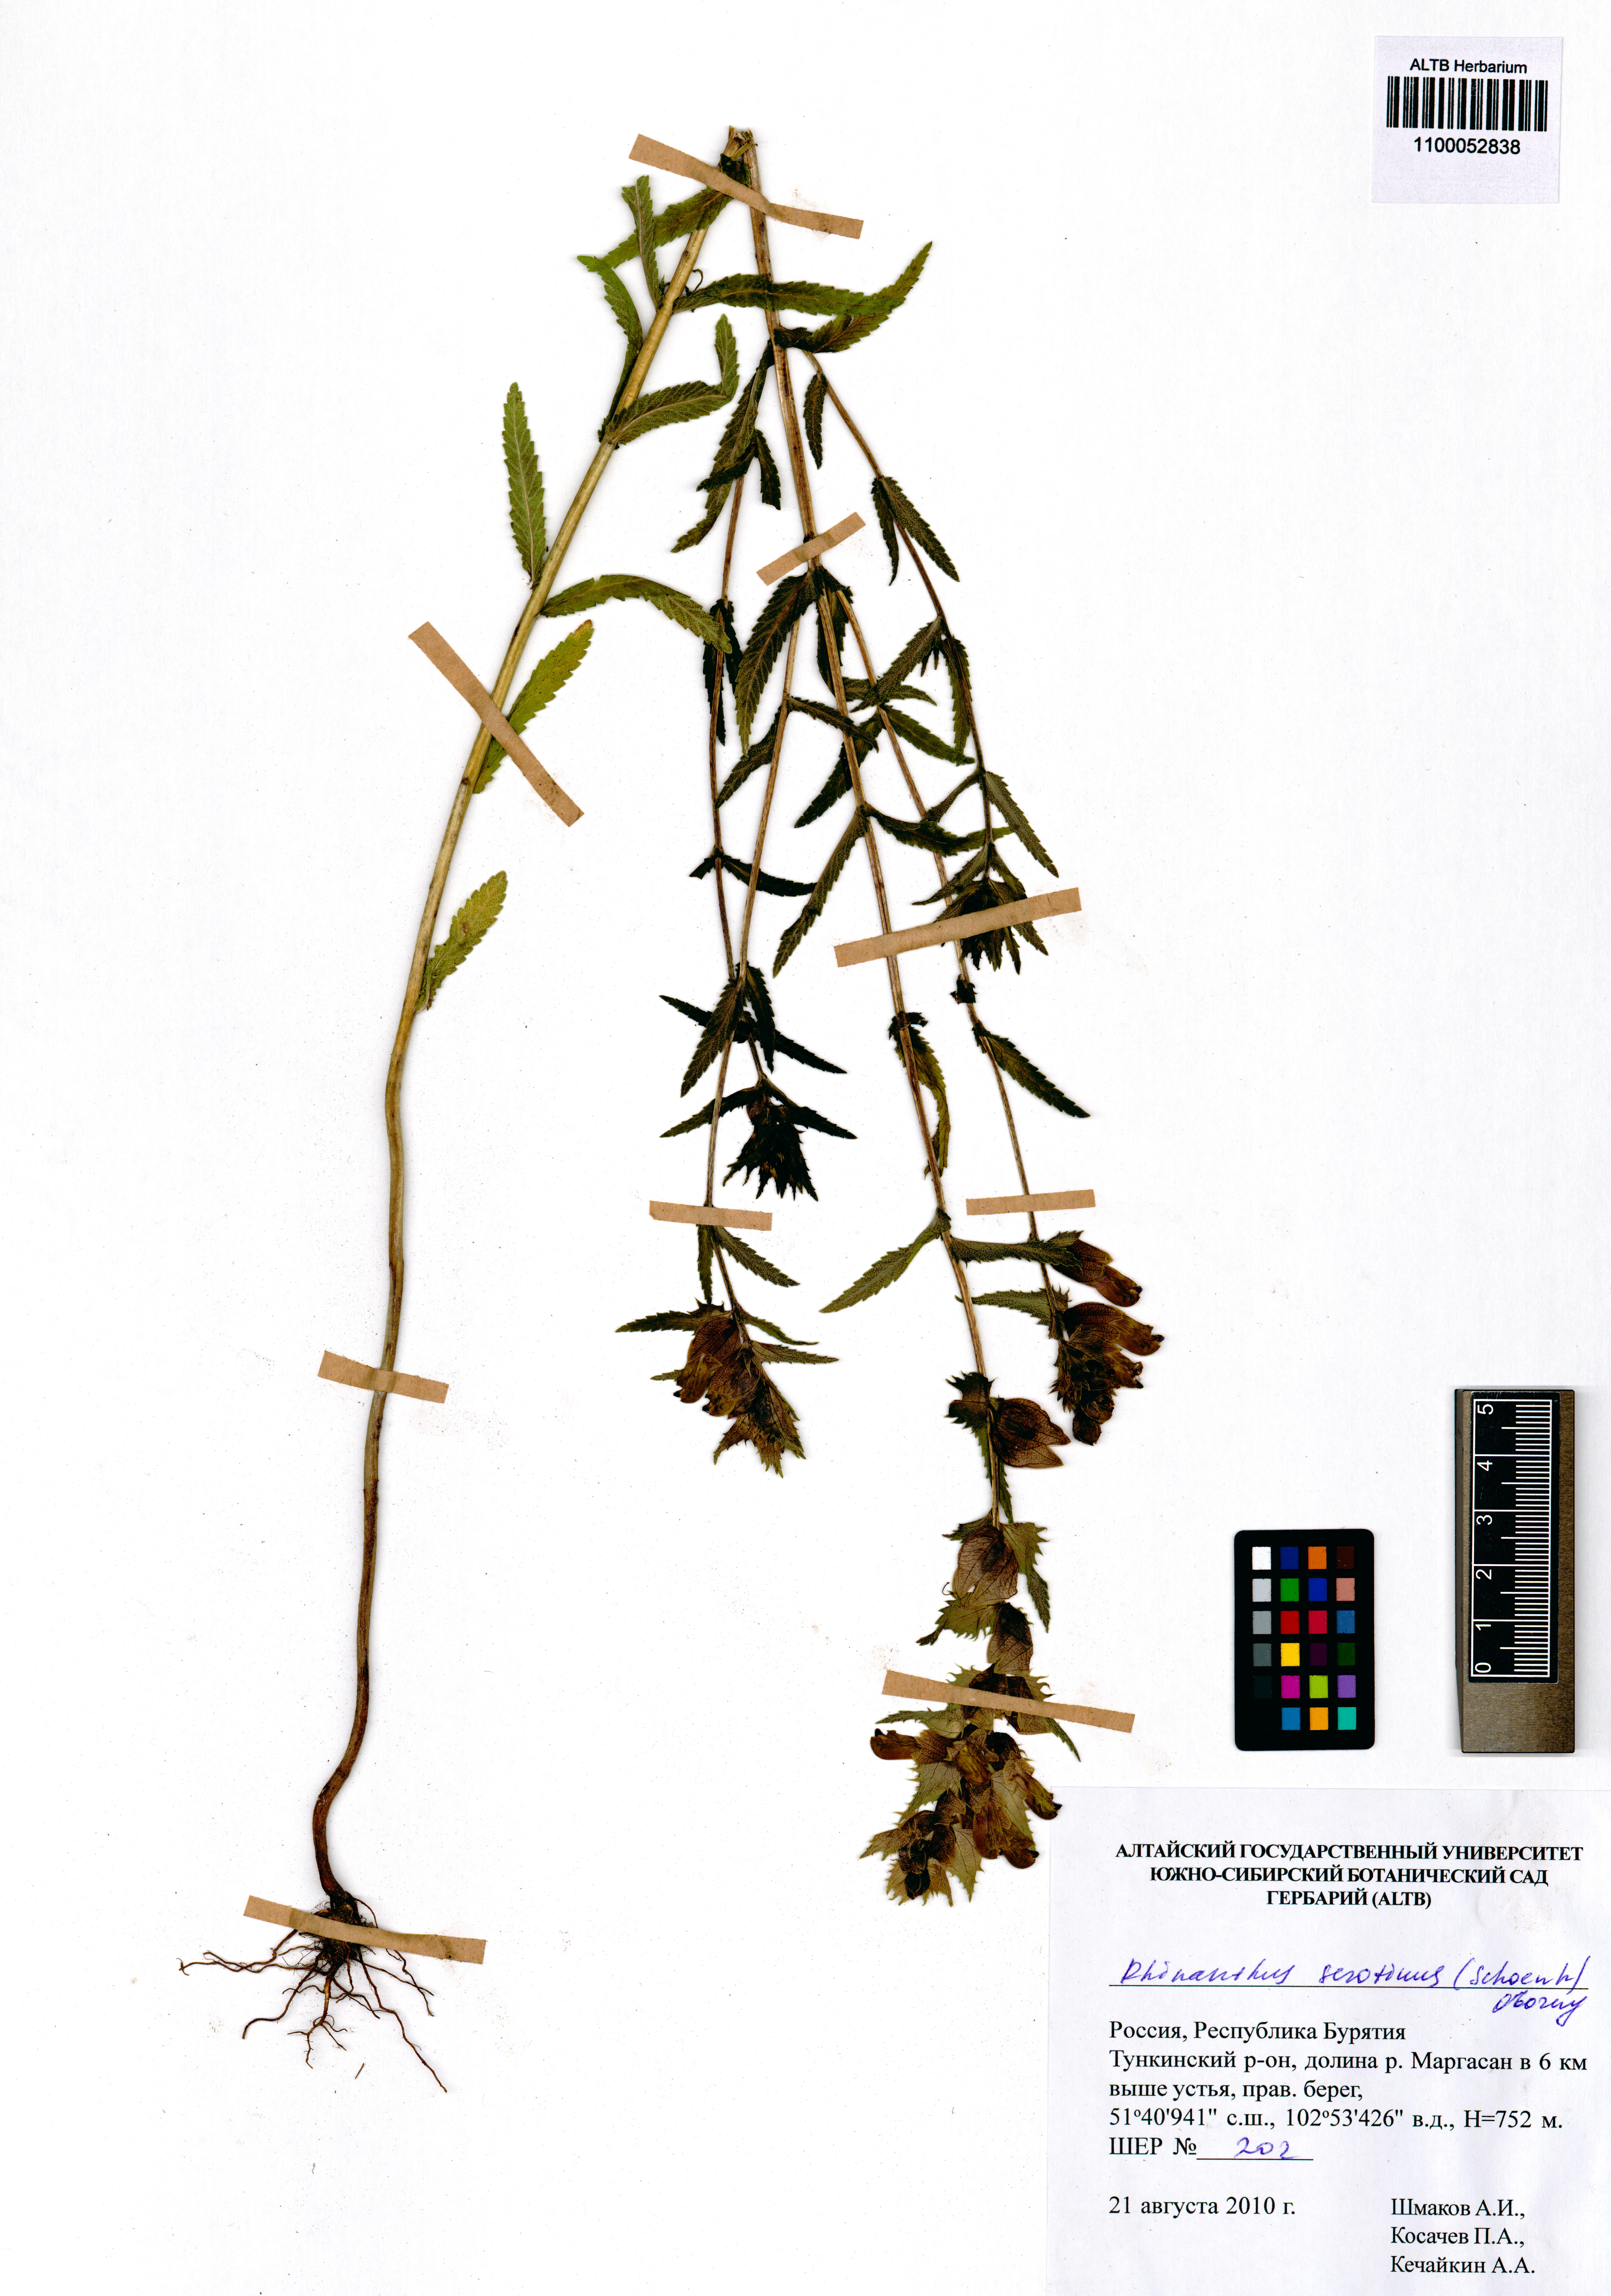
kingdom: Plantae
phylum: Tracheophyta
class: Magnoliopsida
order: Lamiales
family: Orobanchaceae
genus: Rhinanthus
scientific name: Rhinanthus serotinus
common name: Late-flowering yellow rattle
